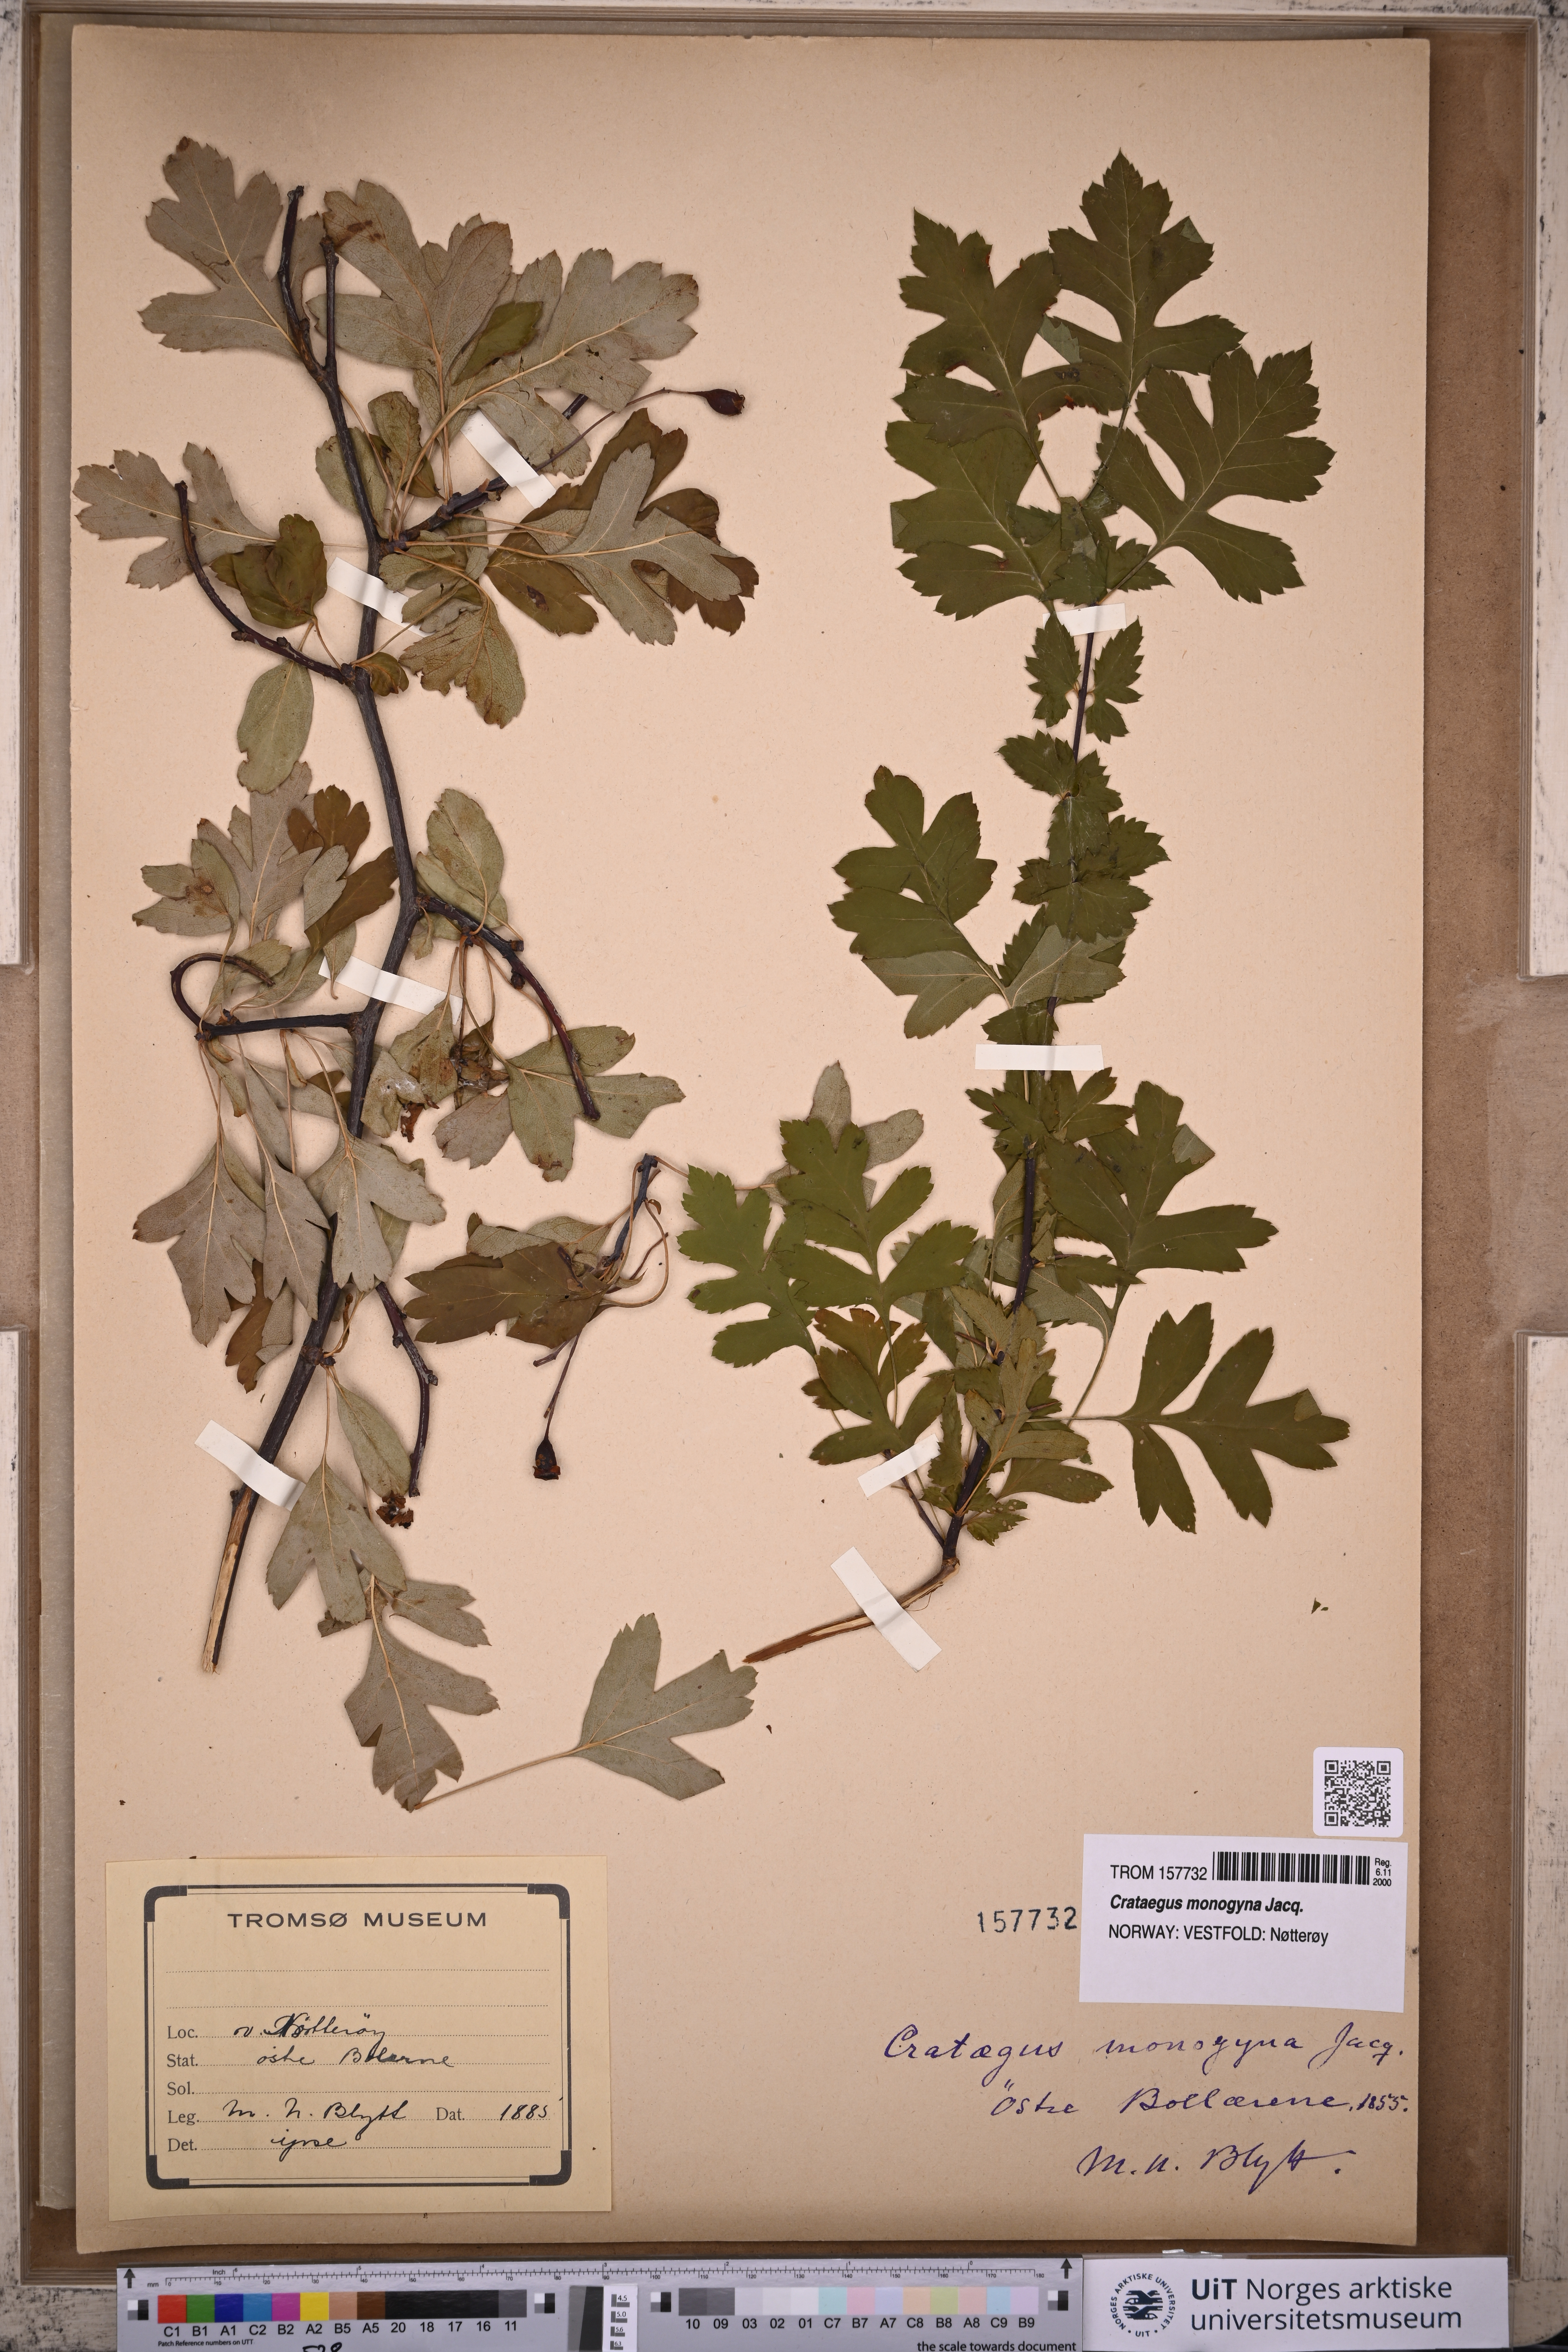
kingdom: Plantae
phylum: Tracheophyta
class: Magnoliopsida
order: Rosales
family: Rosaceae
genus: Crataegus
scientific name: Crataegus monogyna
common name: Hawthorn
